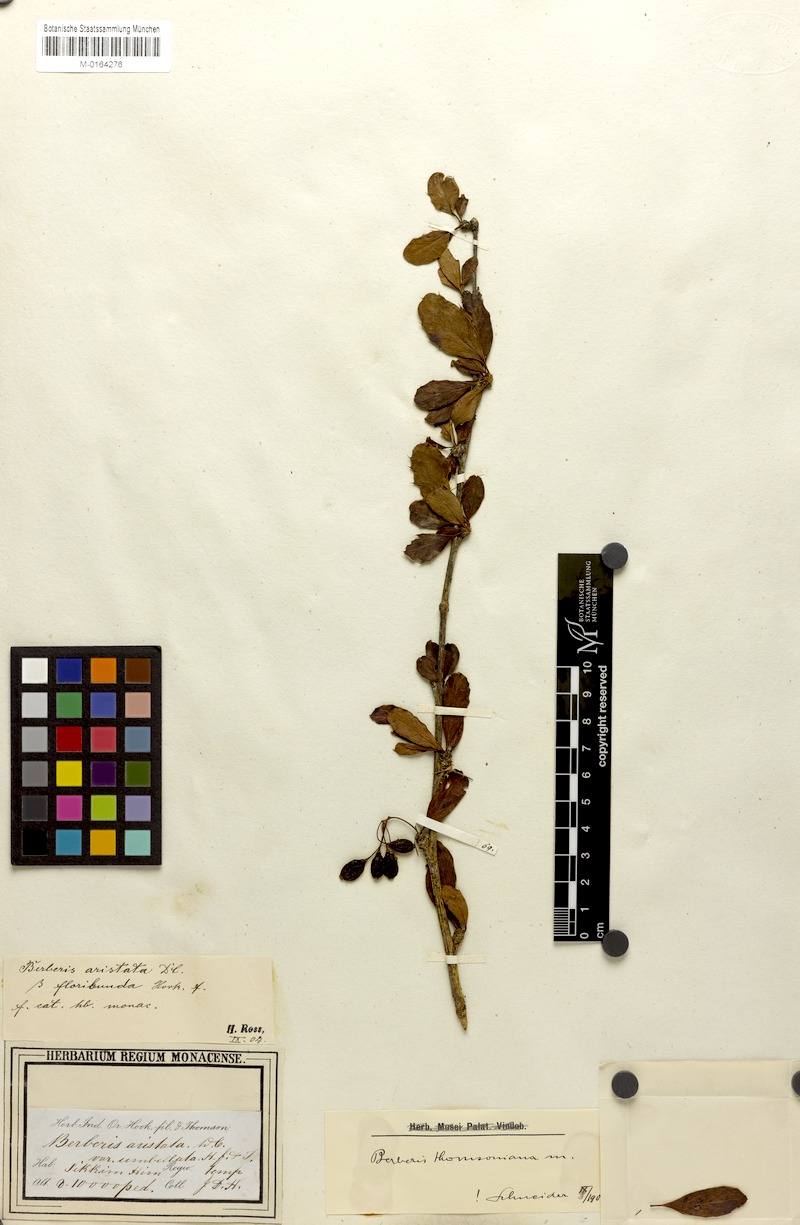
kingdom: Plantae
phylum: Tracheophyta
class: Magnoliopsida
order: Ranunculales
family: Berberidaceae
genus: Berberis
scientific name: Berberis aristata
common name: Indian barberry
